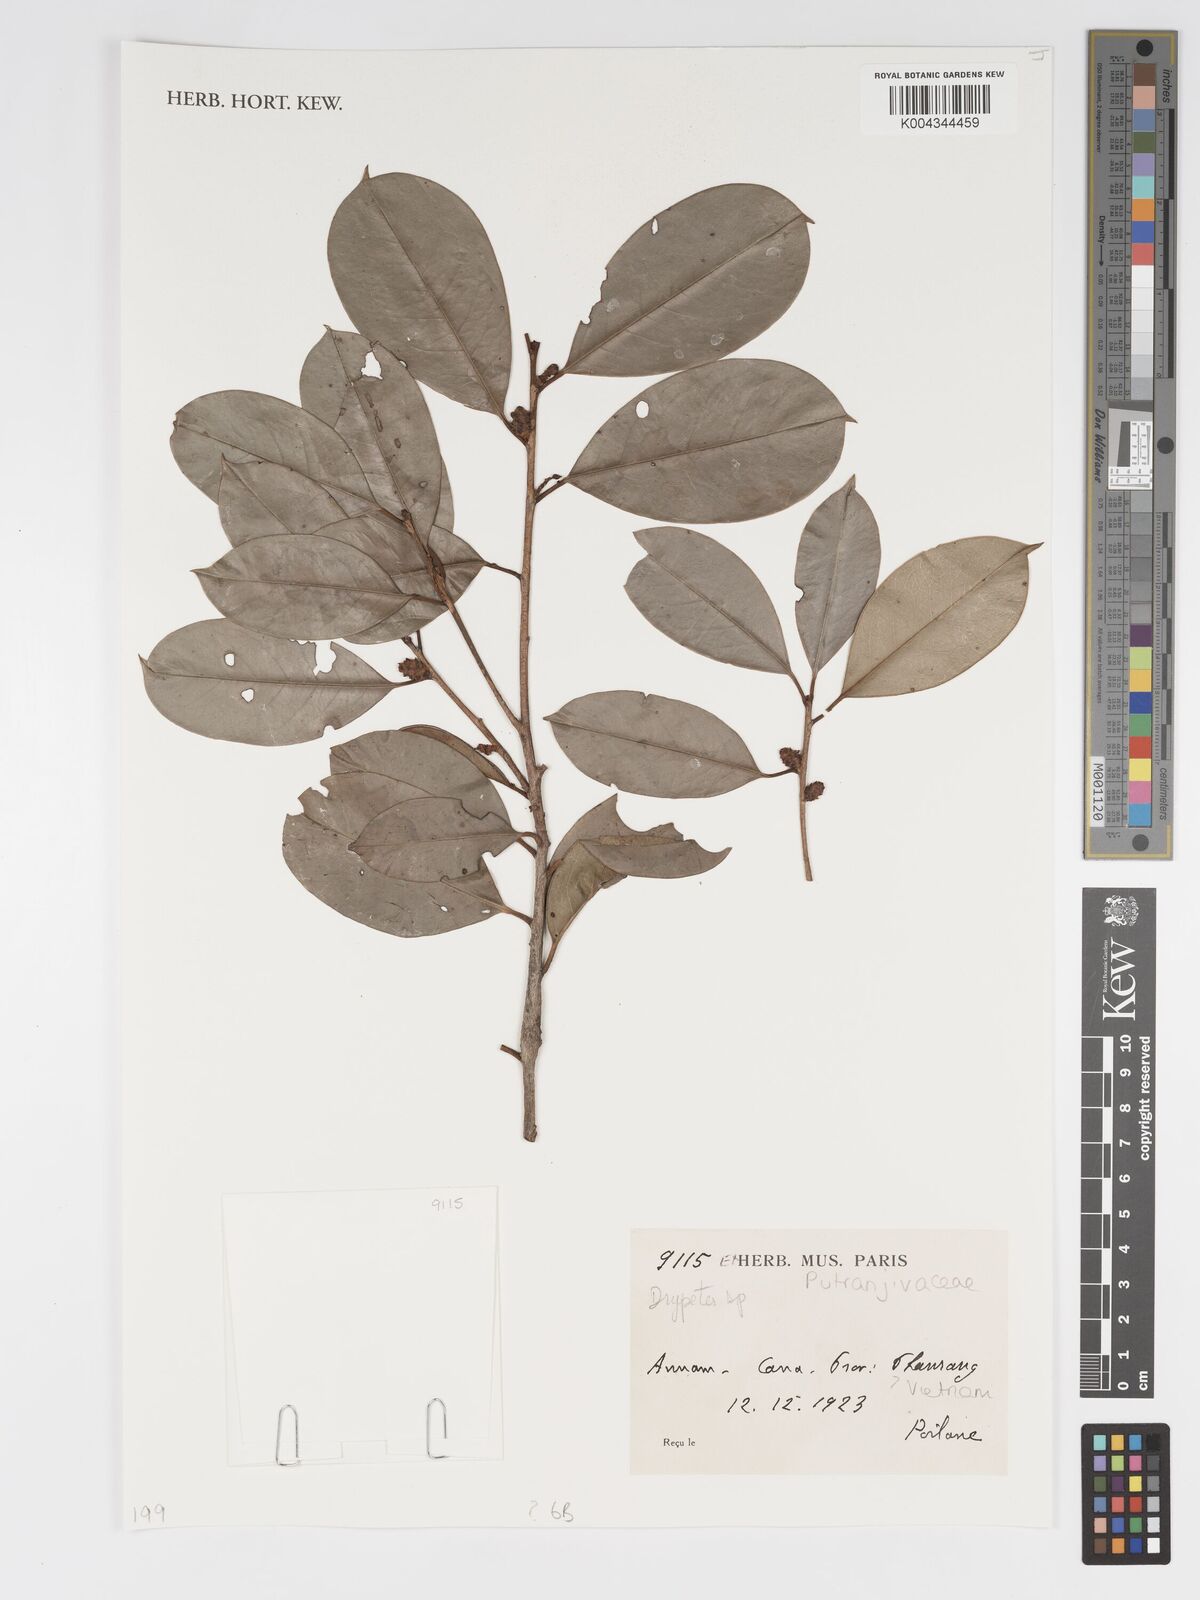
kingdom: Plantae
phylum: Tracheophyta
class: Magnoliopsida
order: Malpighiales
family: Putranjivaceae
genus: Drypetes
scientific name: Drypetes
